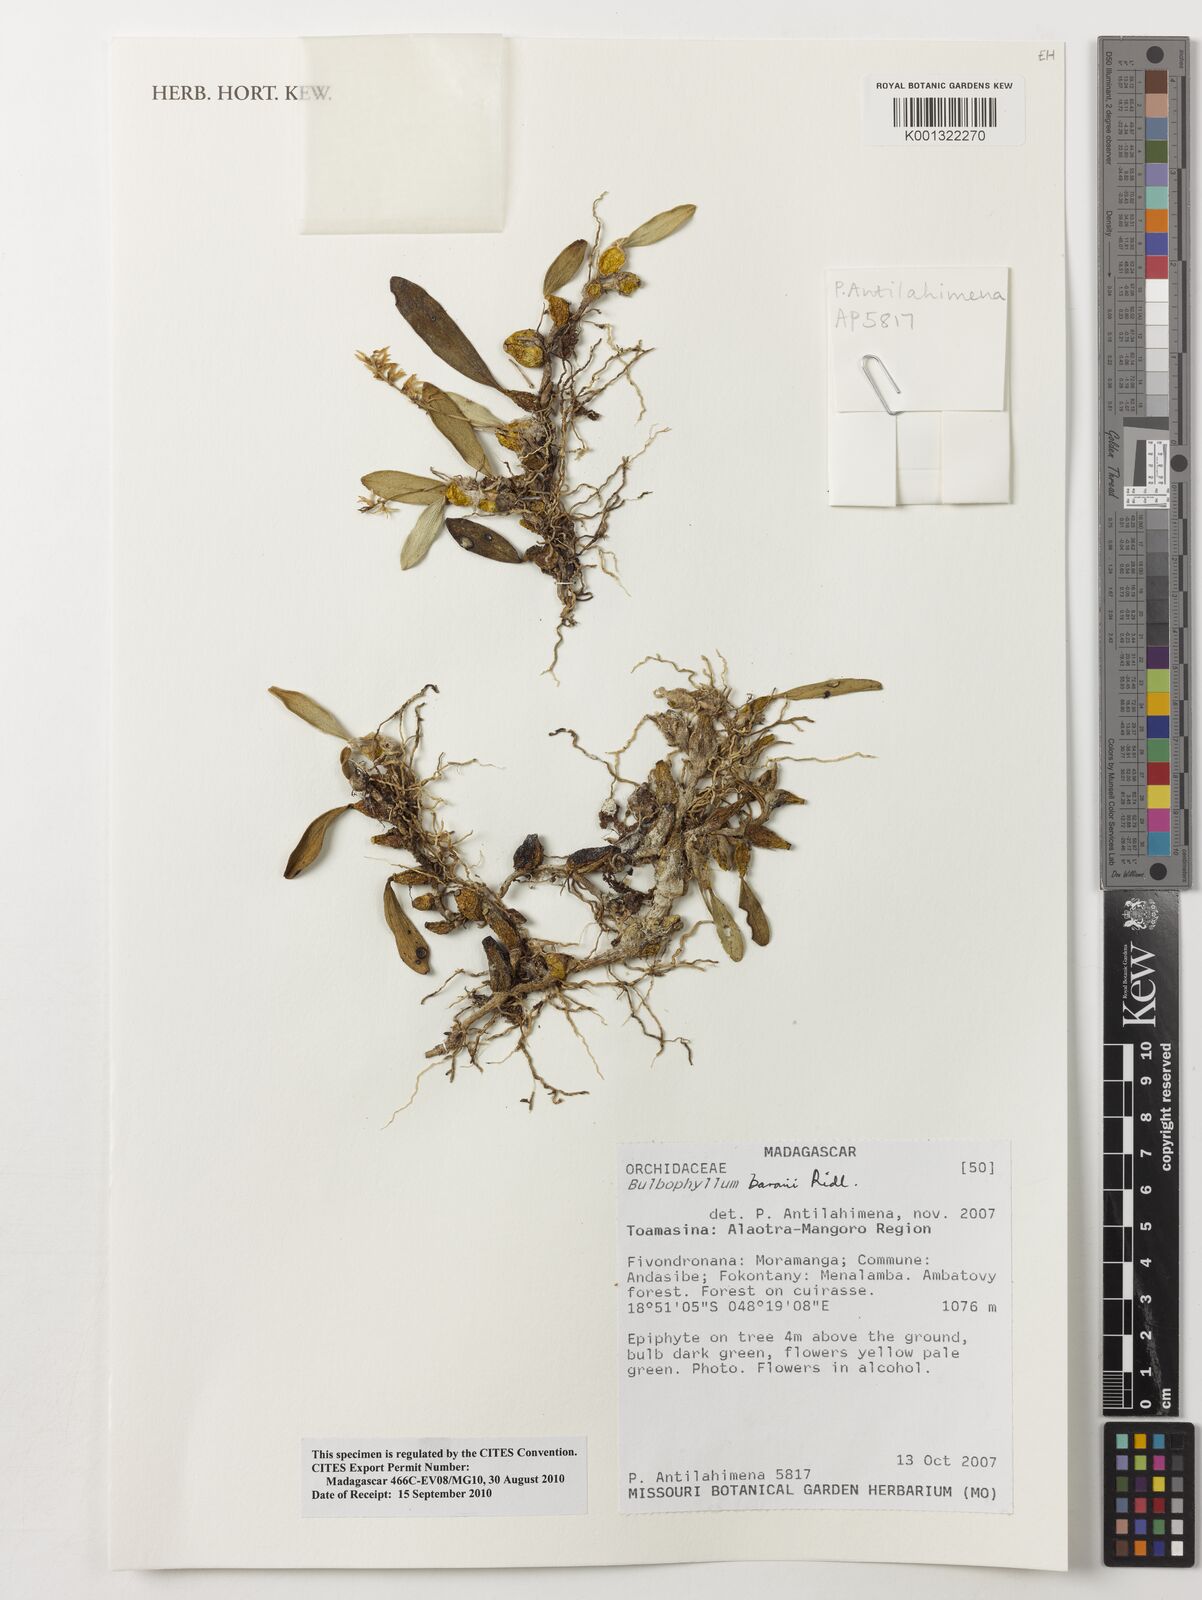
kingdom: Plantae
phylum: Tracheophyta
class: Liliopsida
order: Asparagales
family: Orchidaceae
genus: Bulbophyllum
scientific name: Bulbophyllum baronii
